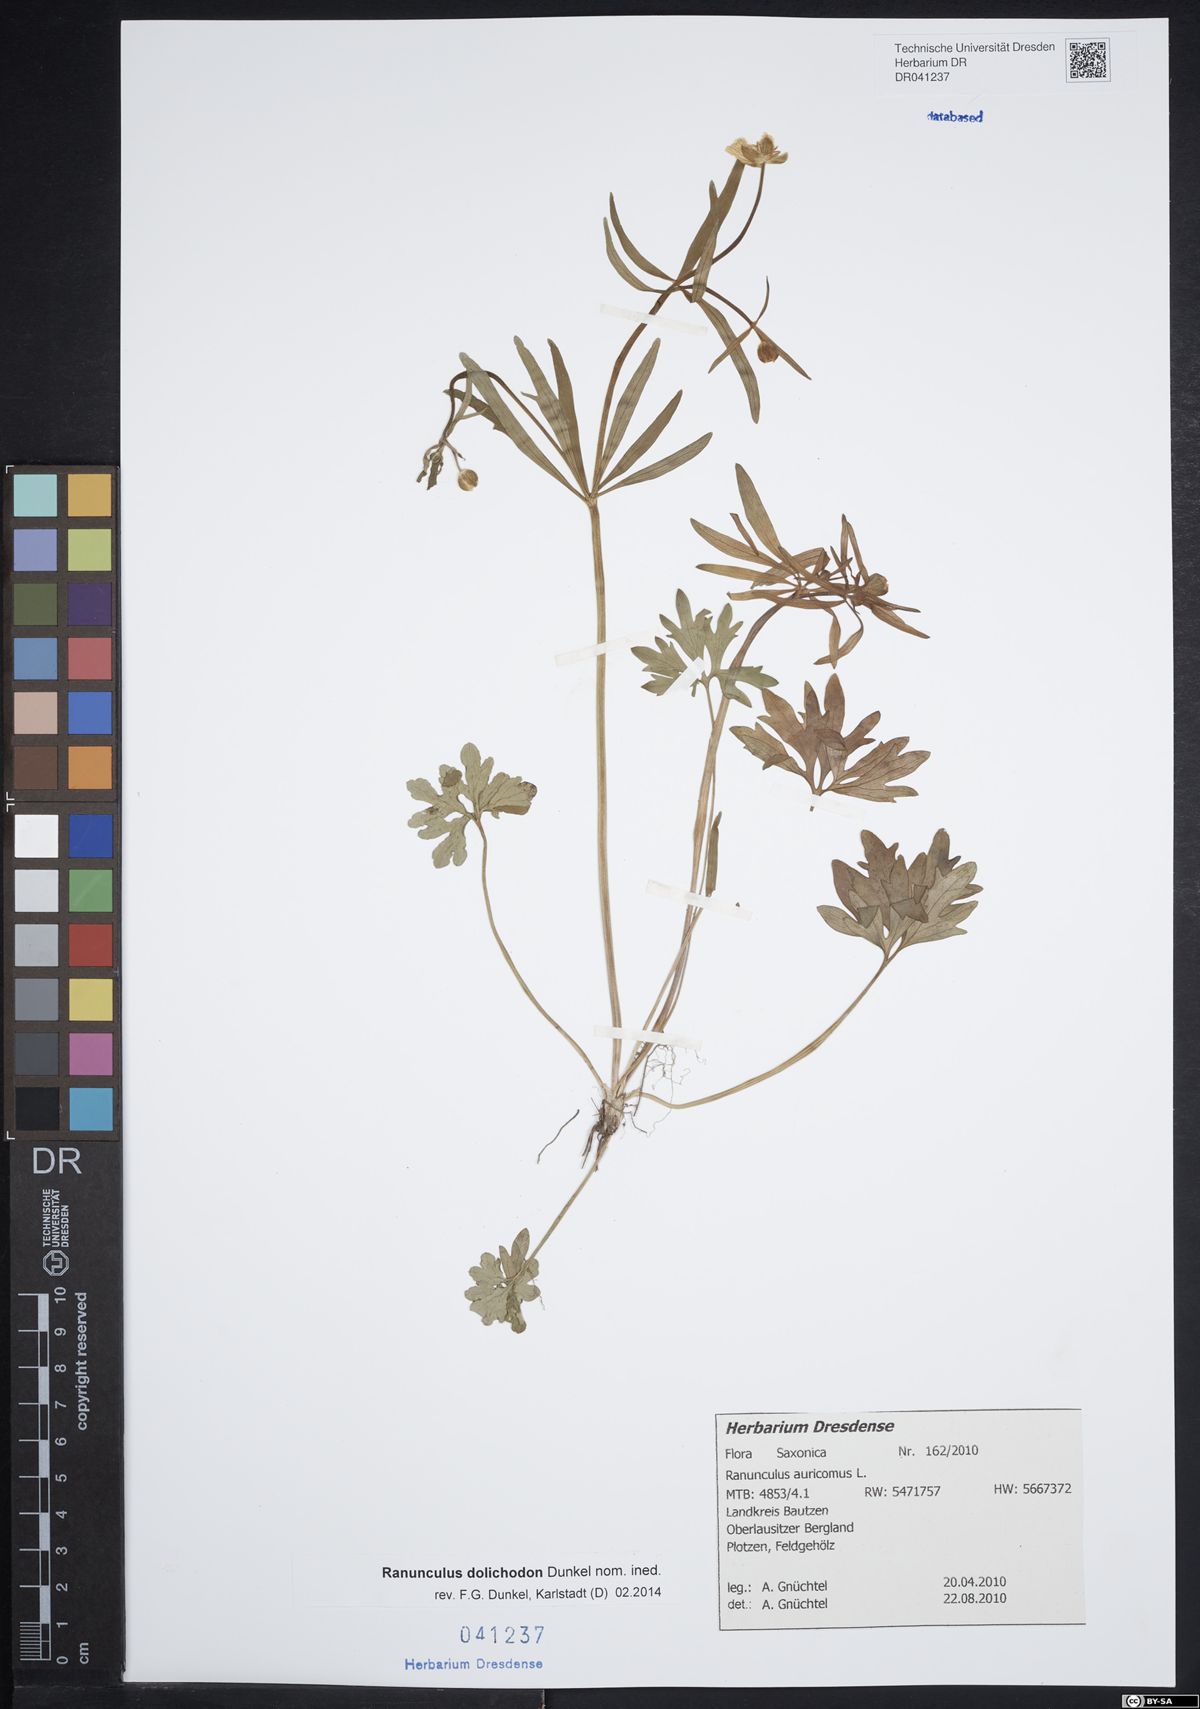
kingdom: Plantae
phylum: Tracheophyta
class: Magnoliopsida
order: Ranunculales
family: Ranunculaceae
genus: Ranunculus
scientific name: Ranunculus auricomus
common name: Goldilocks buttercup
